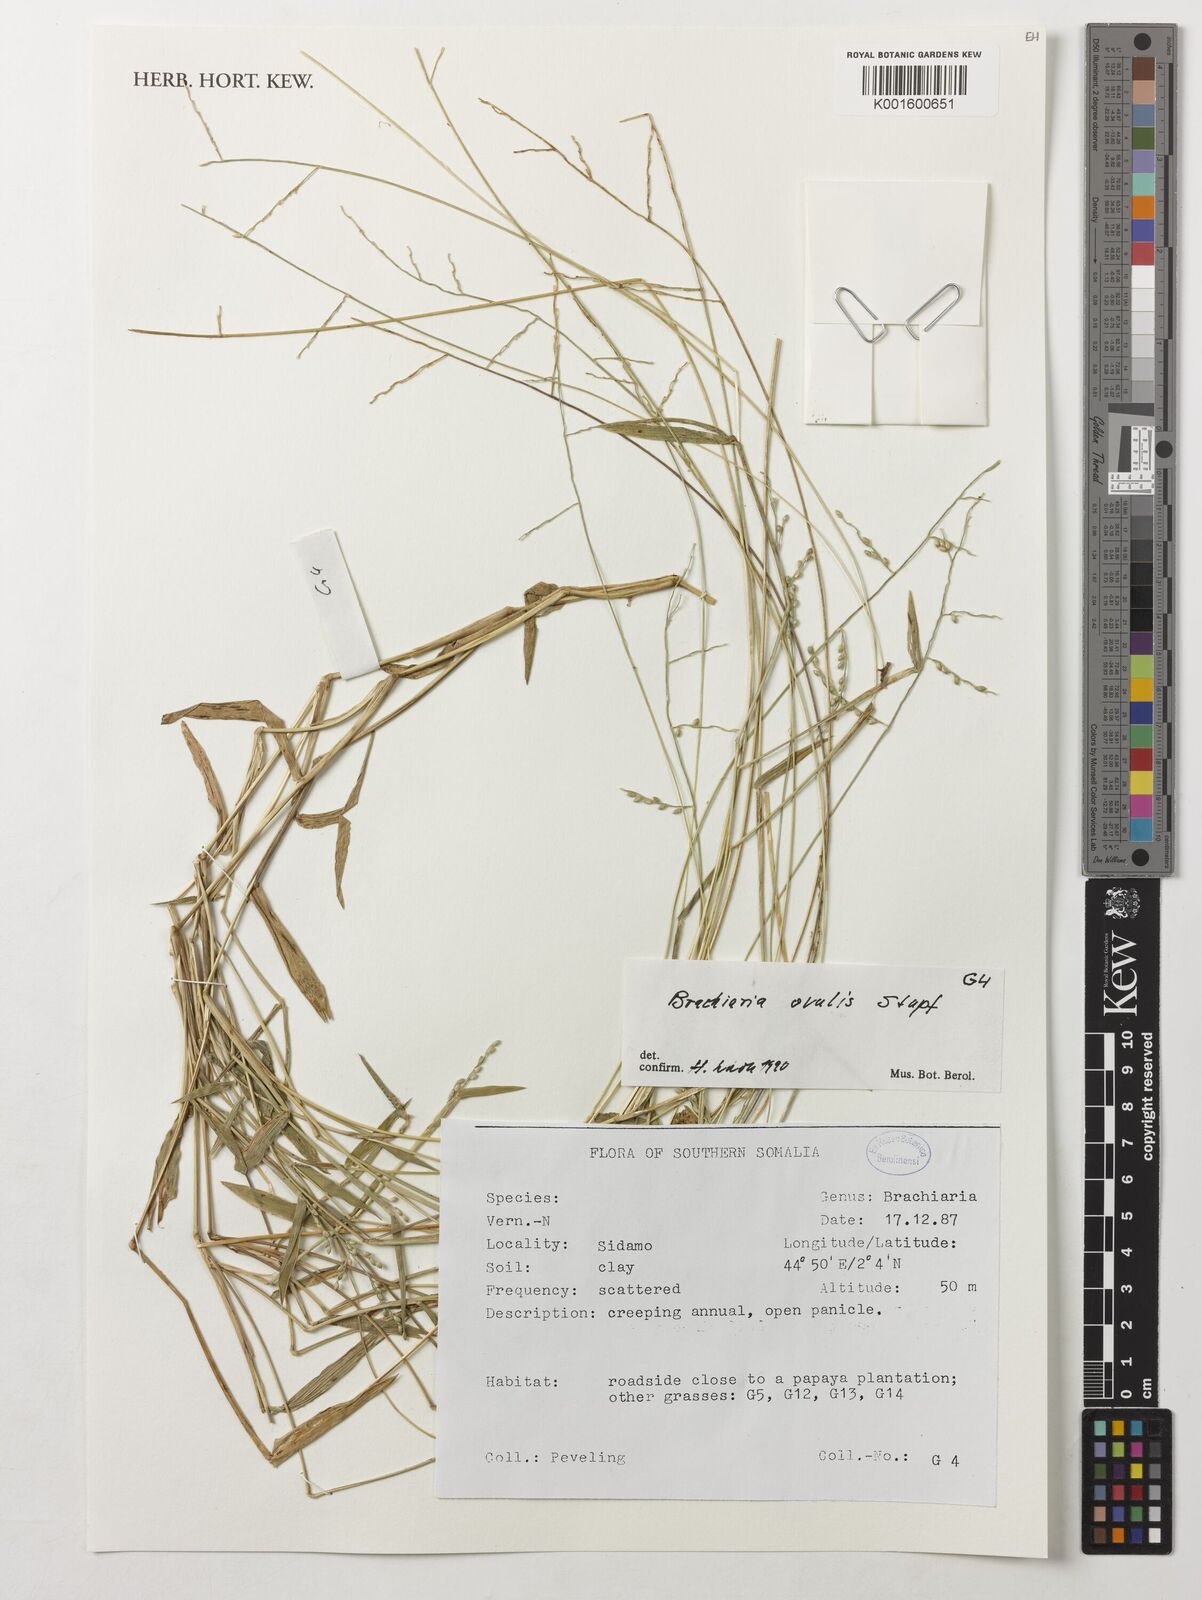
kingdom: Plantae
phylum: Tracheophyta
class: Liliopsida
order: Poales
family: Poaceae
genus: Urochloa
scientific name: Urochloa ovalis
